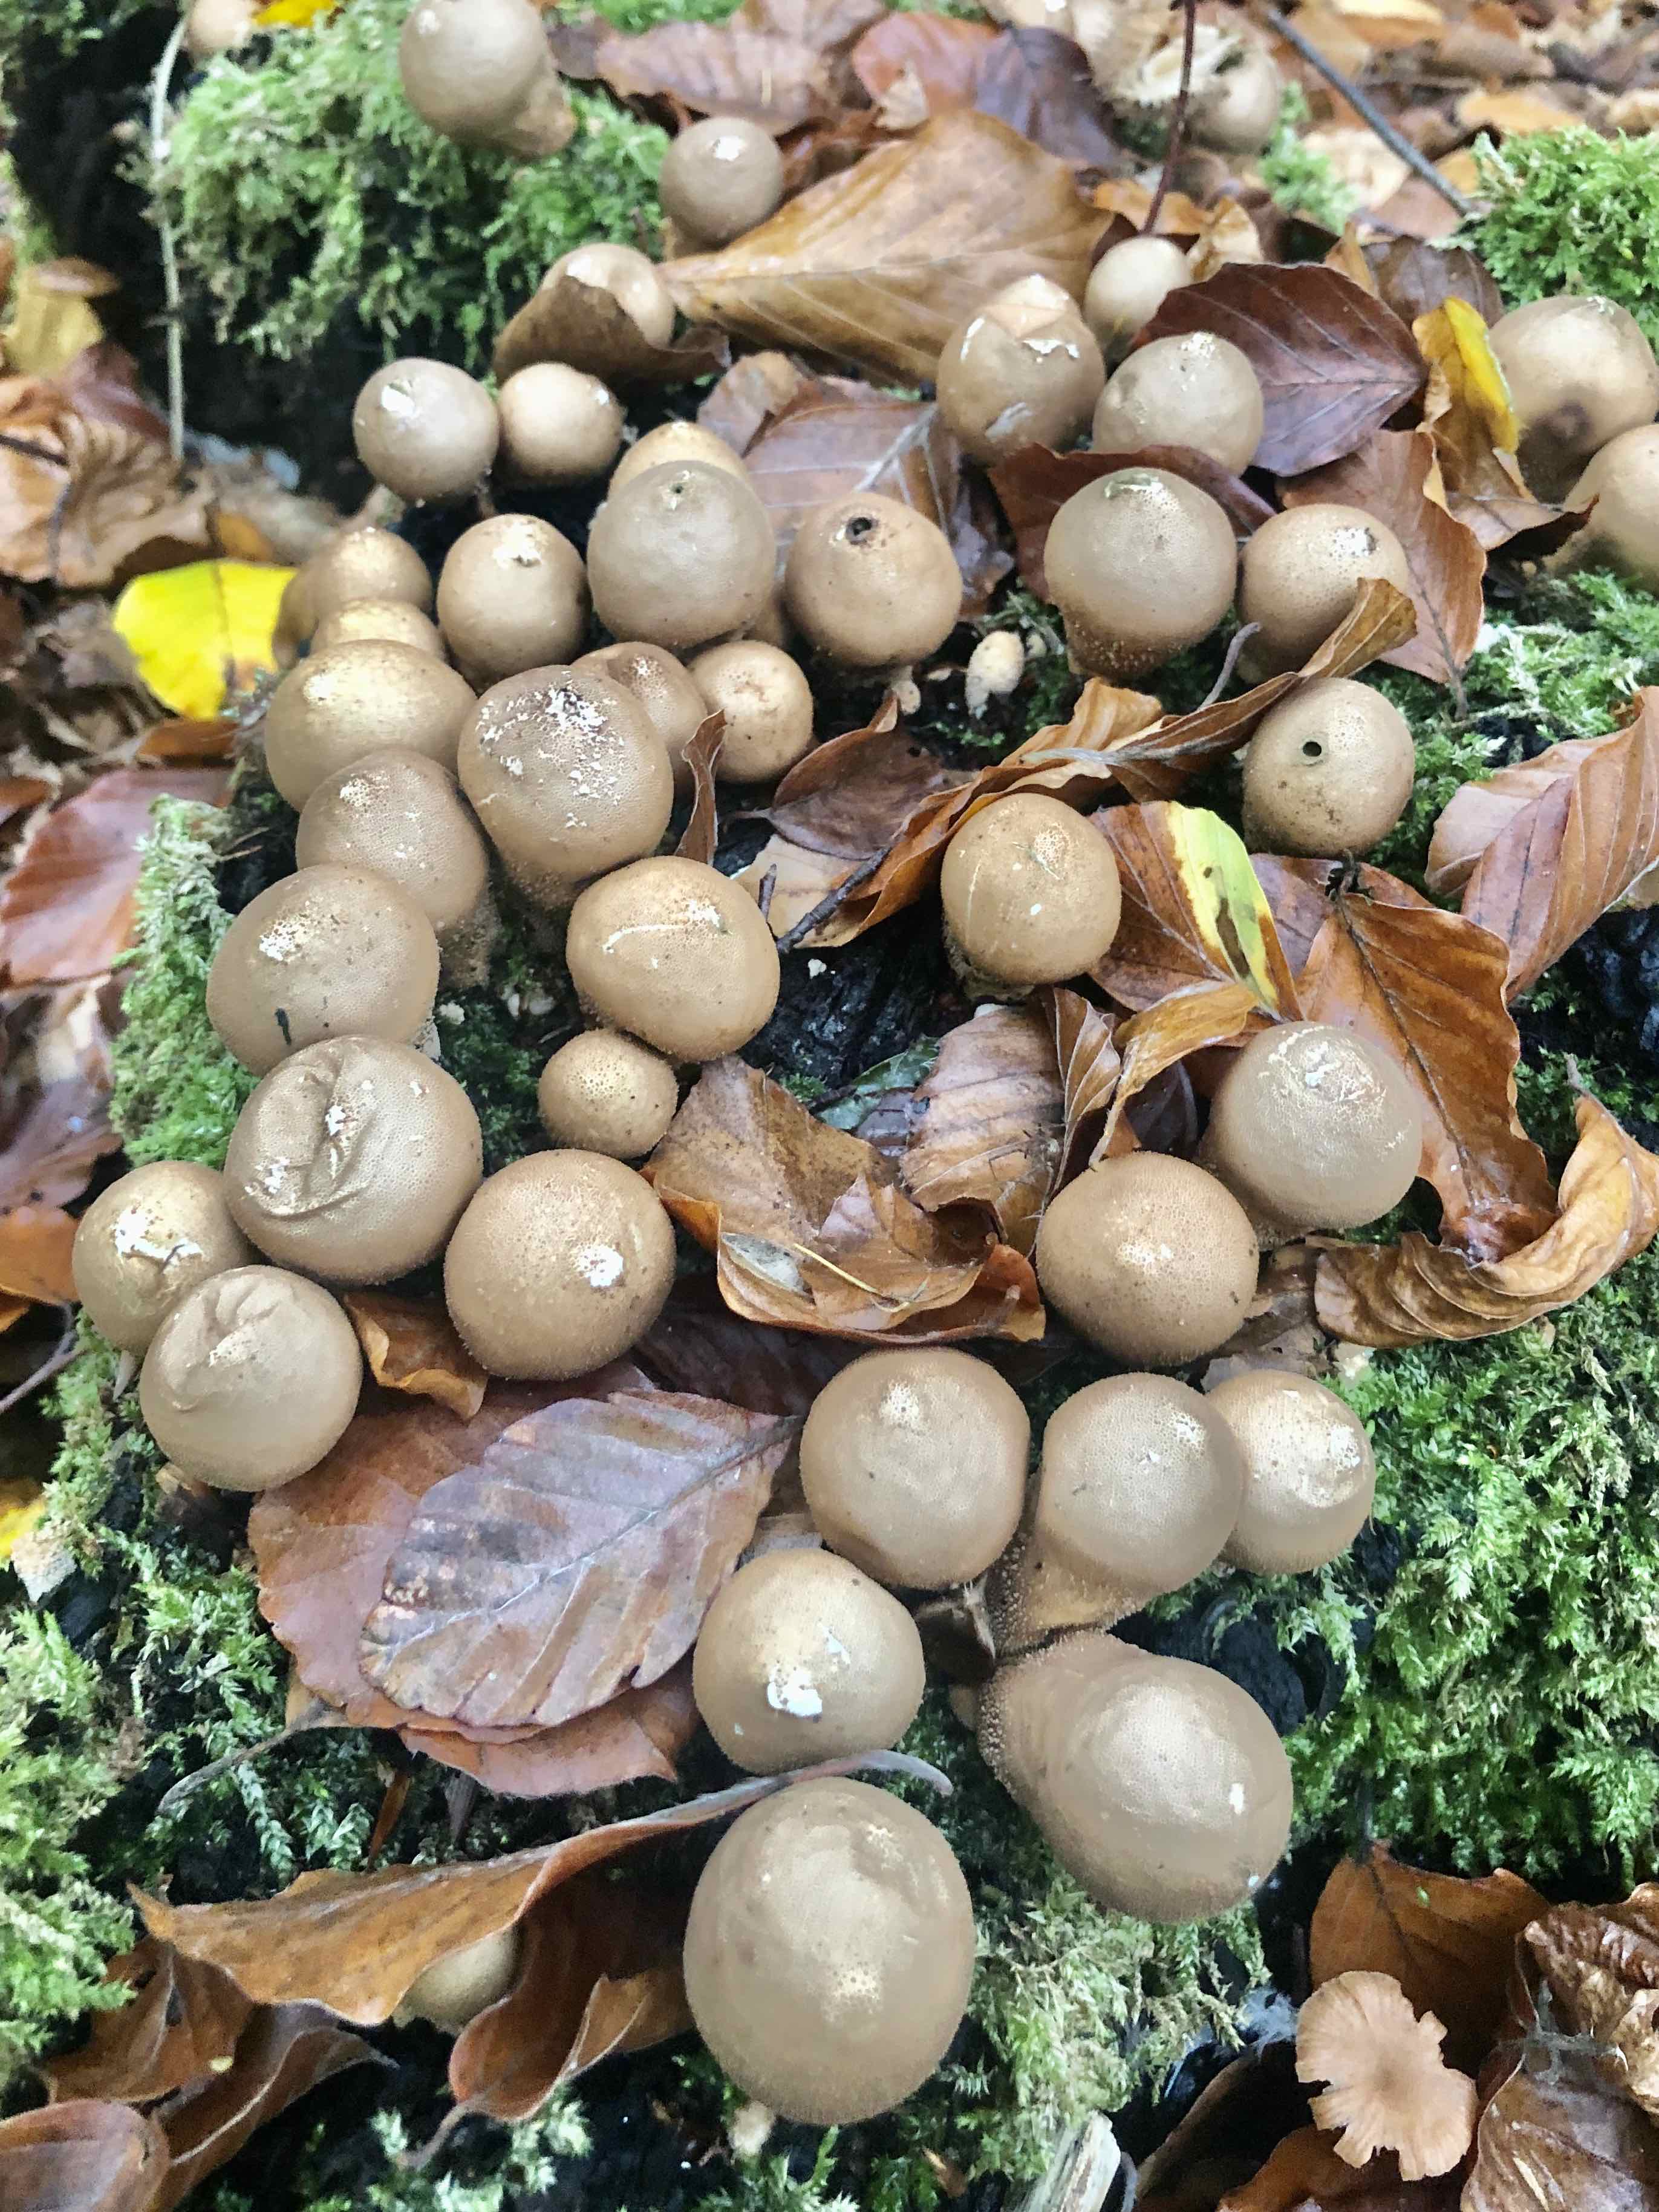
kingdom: Fungi
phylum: Basidiomycota
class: Agaricomycetes
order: Agaricales
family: Lycoperdaceae
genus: Apioperdon
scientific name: Apioperdon pyriforme
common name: pære-støvbold
